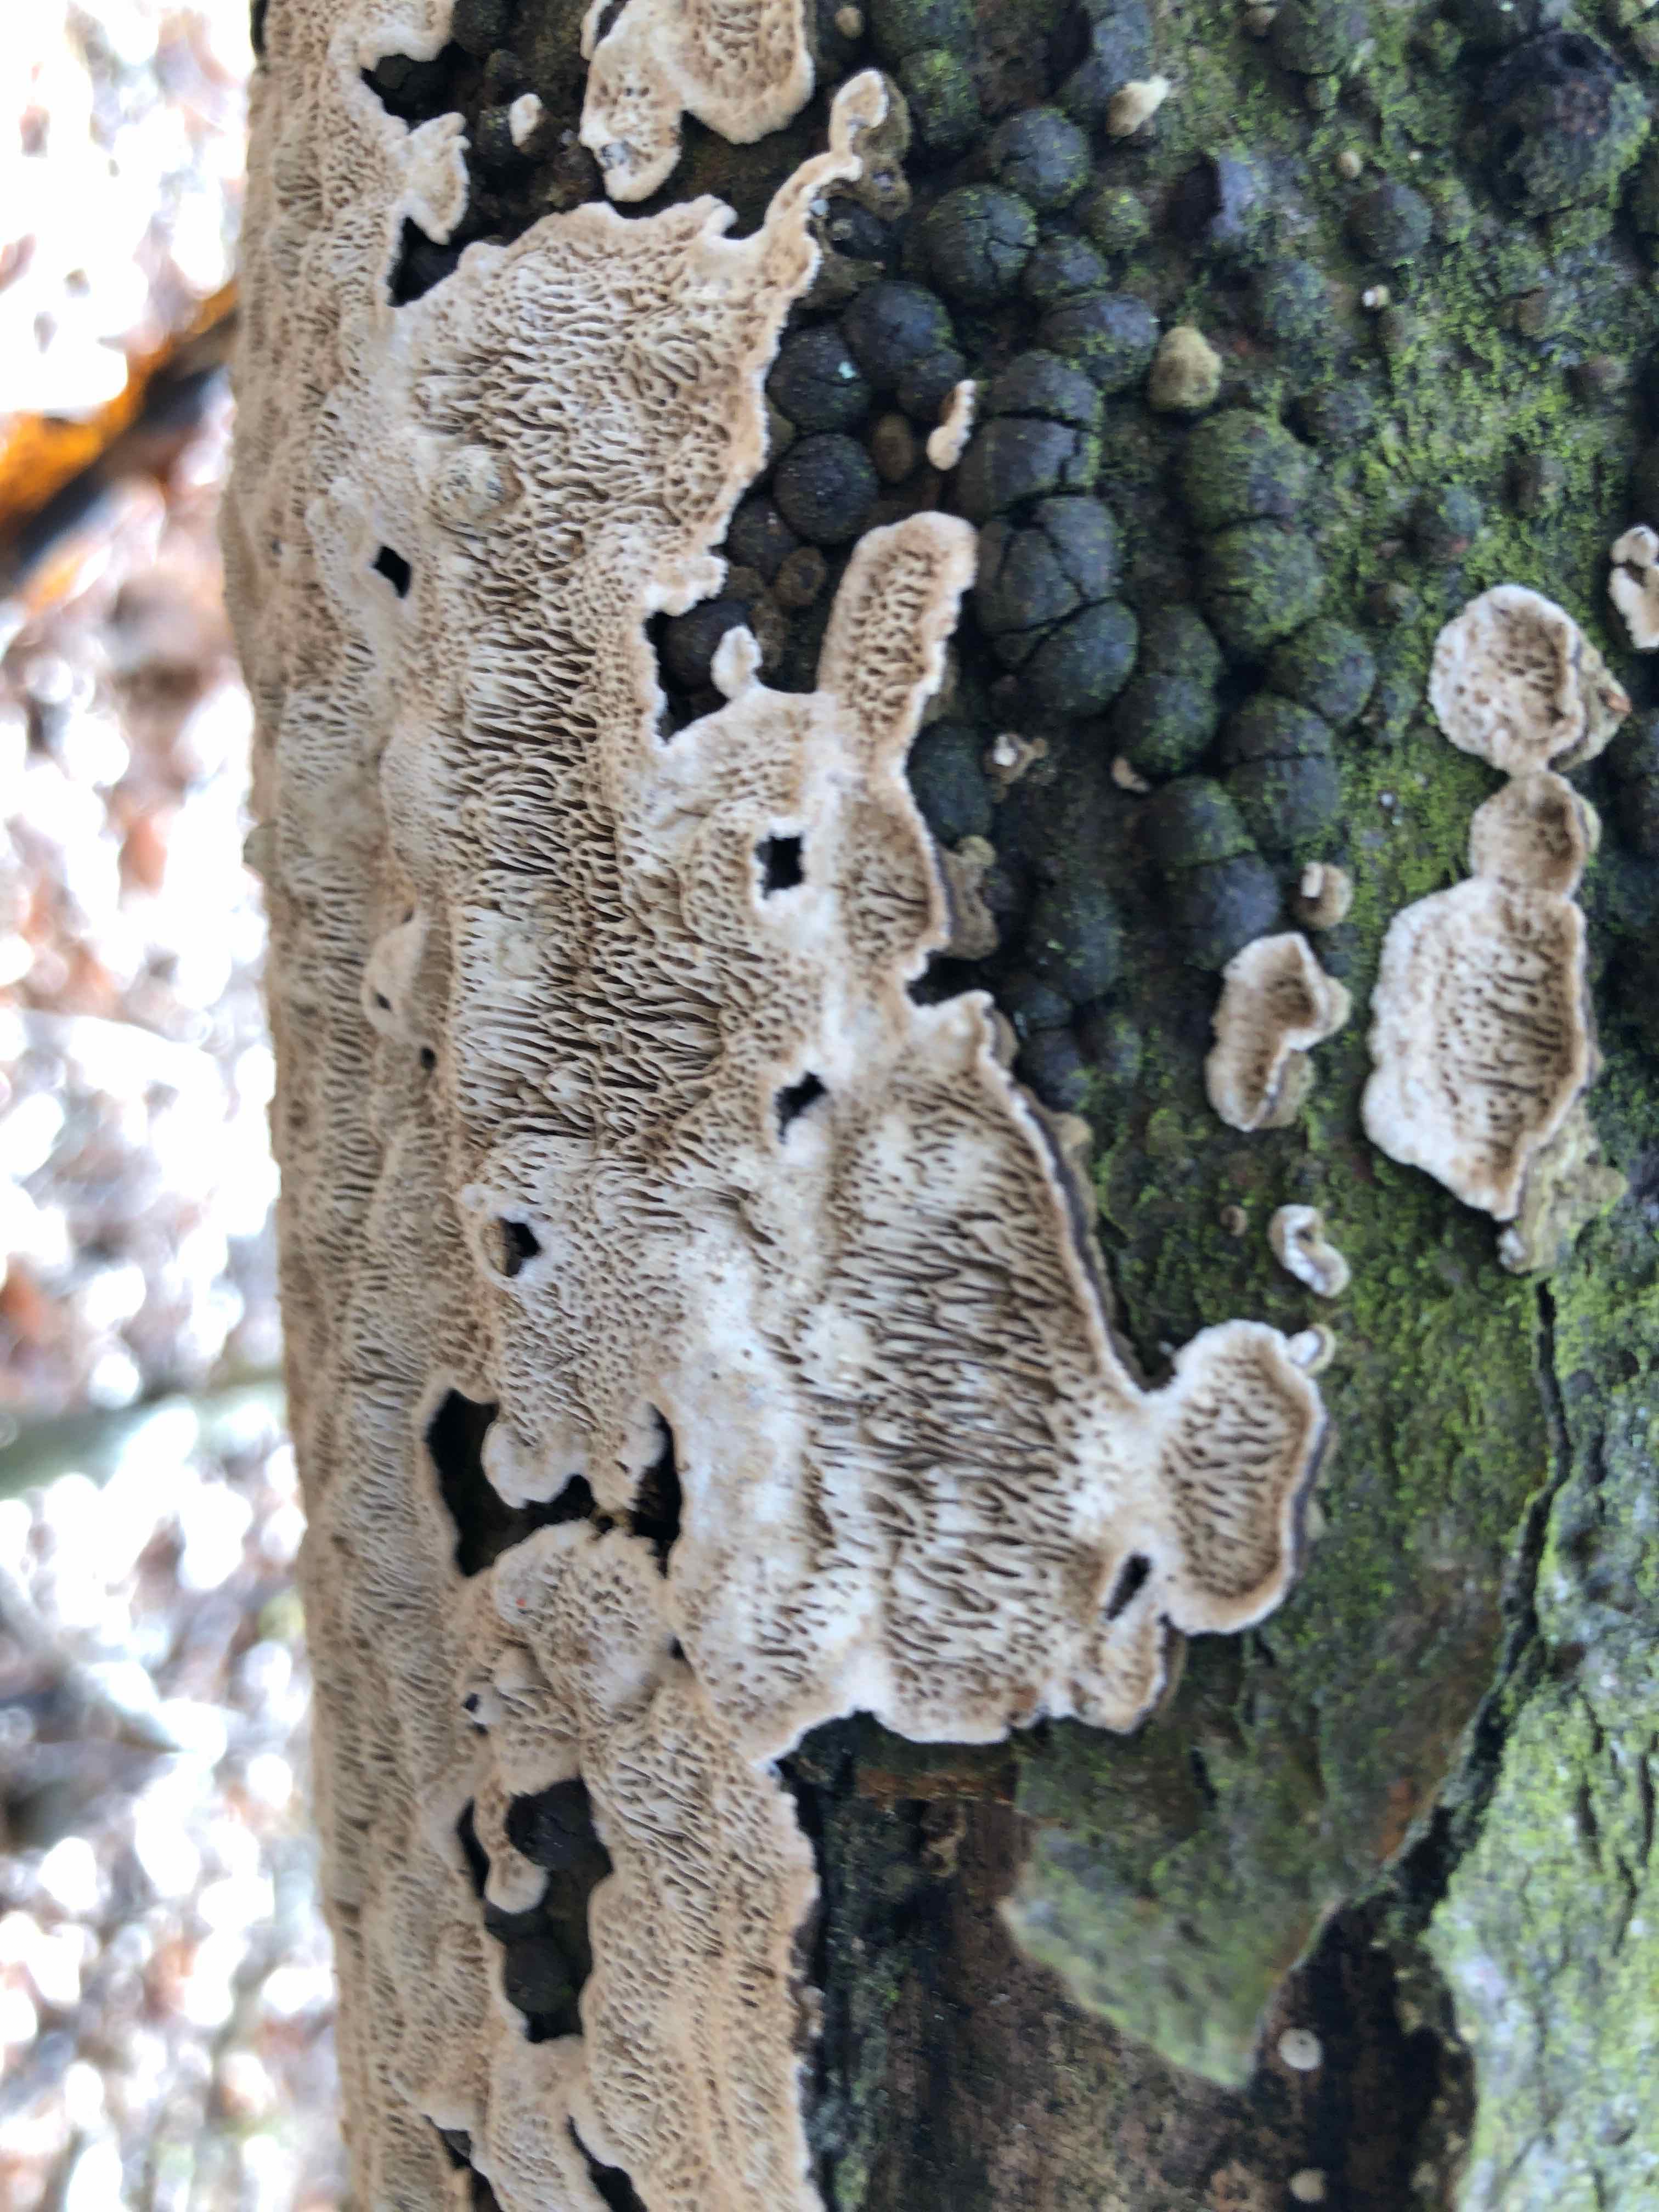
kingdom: Fungi
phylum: Basidiomycota
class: Agaricomycetes
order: Polyporales
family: Polyporaceae
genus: Podofomes
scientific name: Podofomes mollis
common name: blød begporesvamp
